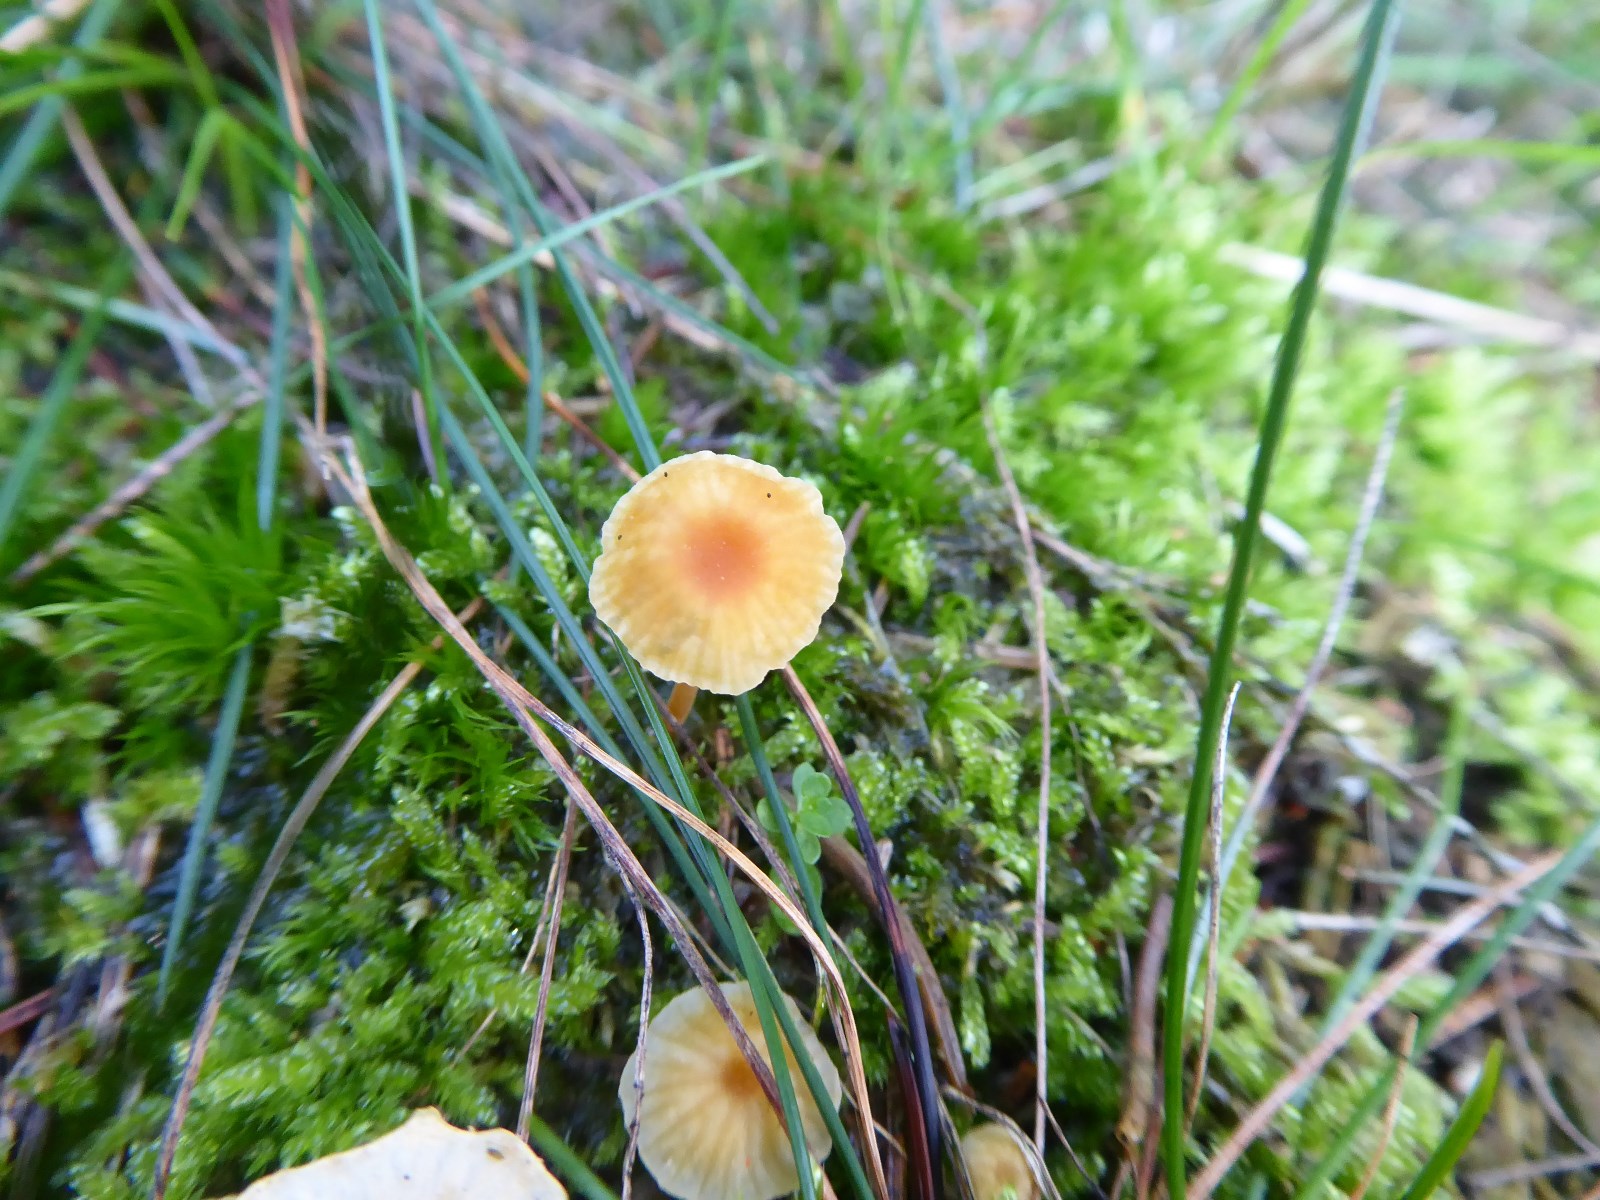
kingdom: Fungi
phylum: Basidiomycota
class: Agaricomycetes
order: Hymenochaetales
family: Rickenellaceae
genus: Rickenella
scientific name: Rickenella fibula
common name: orange mosnavlehat
